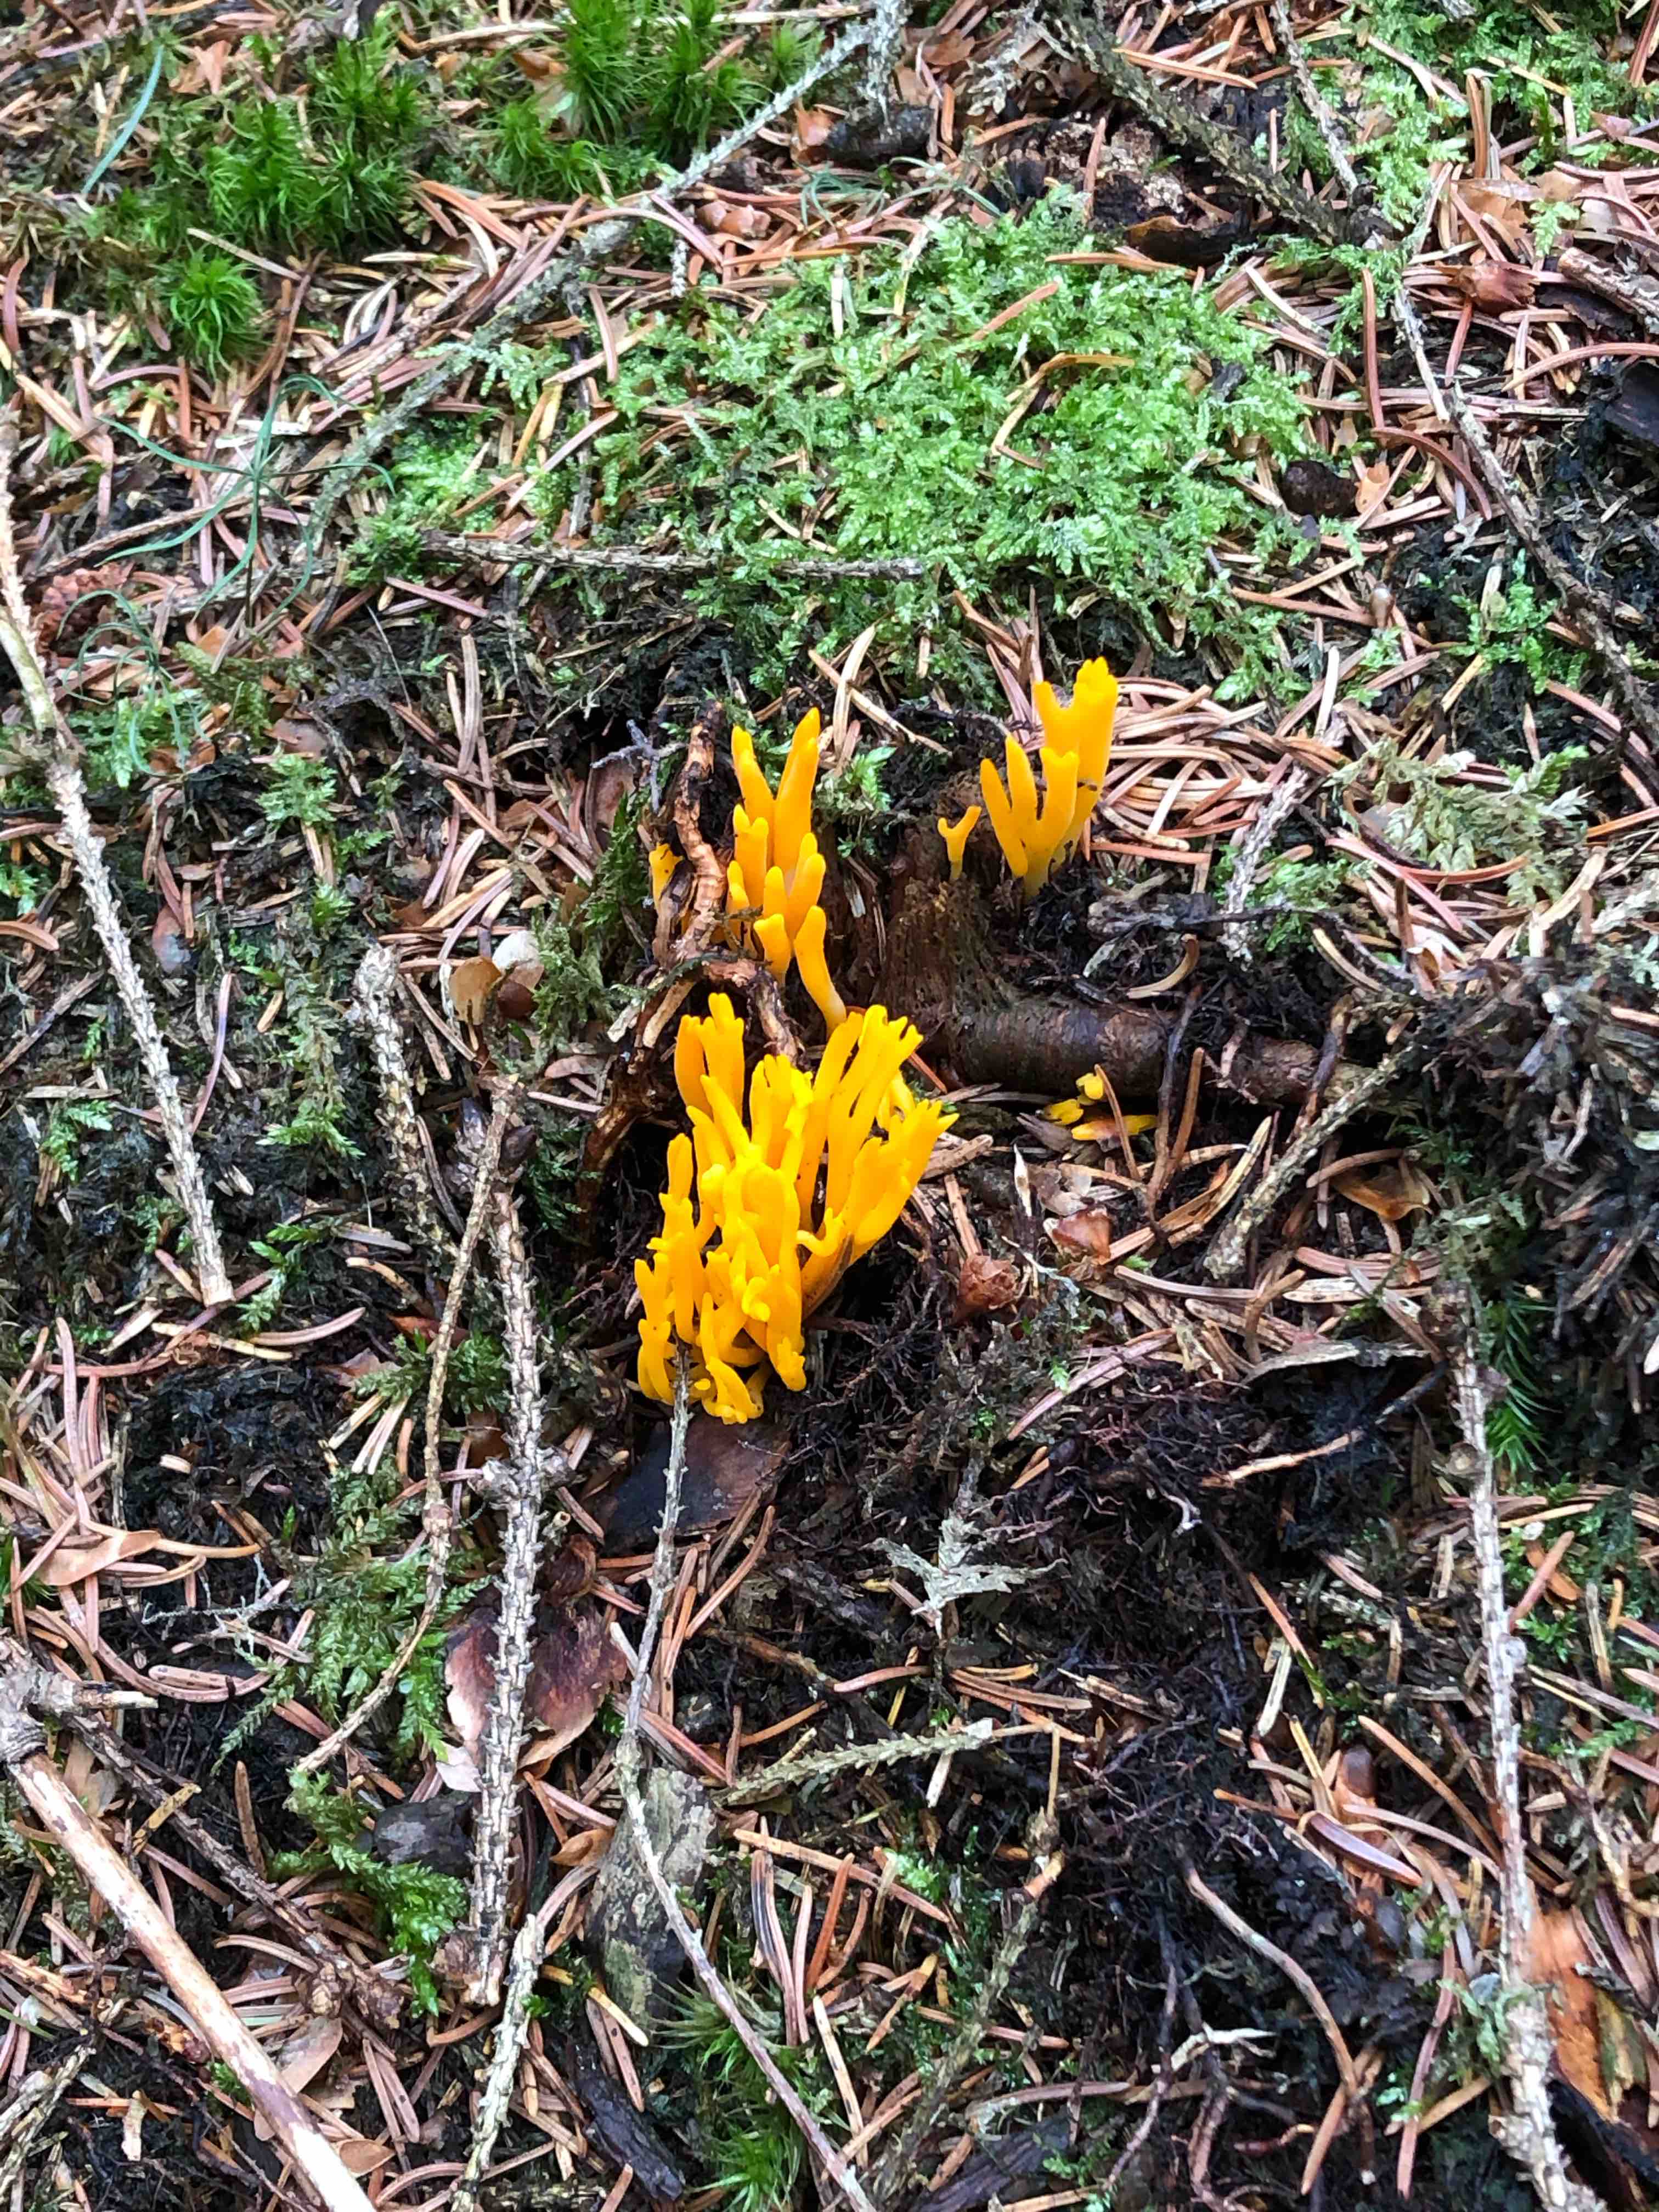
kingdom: Fungi
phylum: Basidiomycota
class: Dacrymycetes
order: Dacrymycetales
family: Dacrymycetaceae
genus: Calocera
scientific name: Calocera viscosa
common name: almindelig guldgaffel
